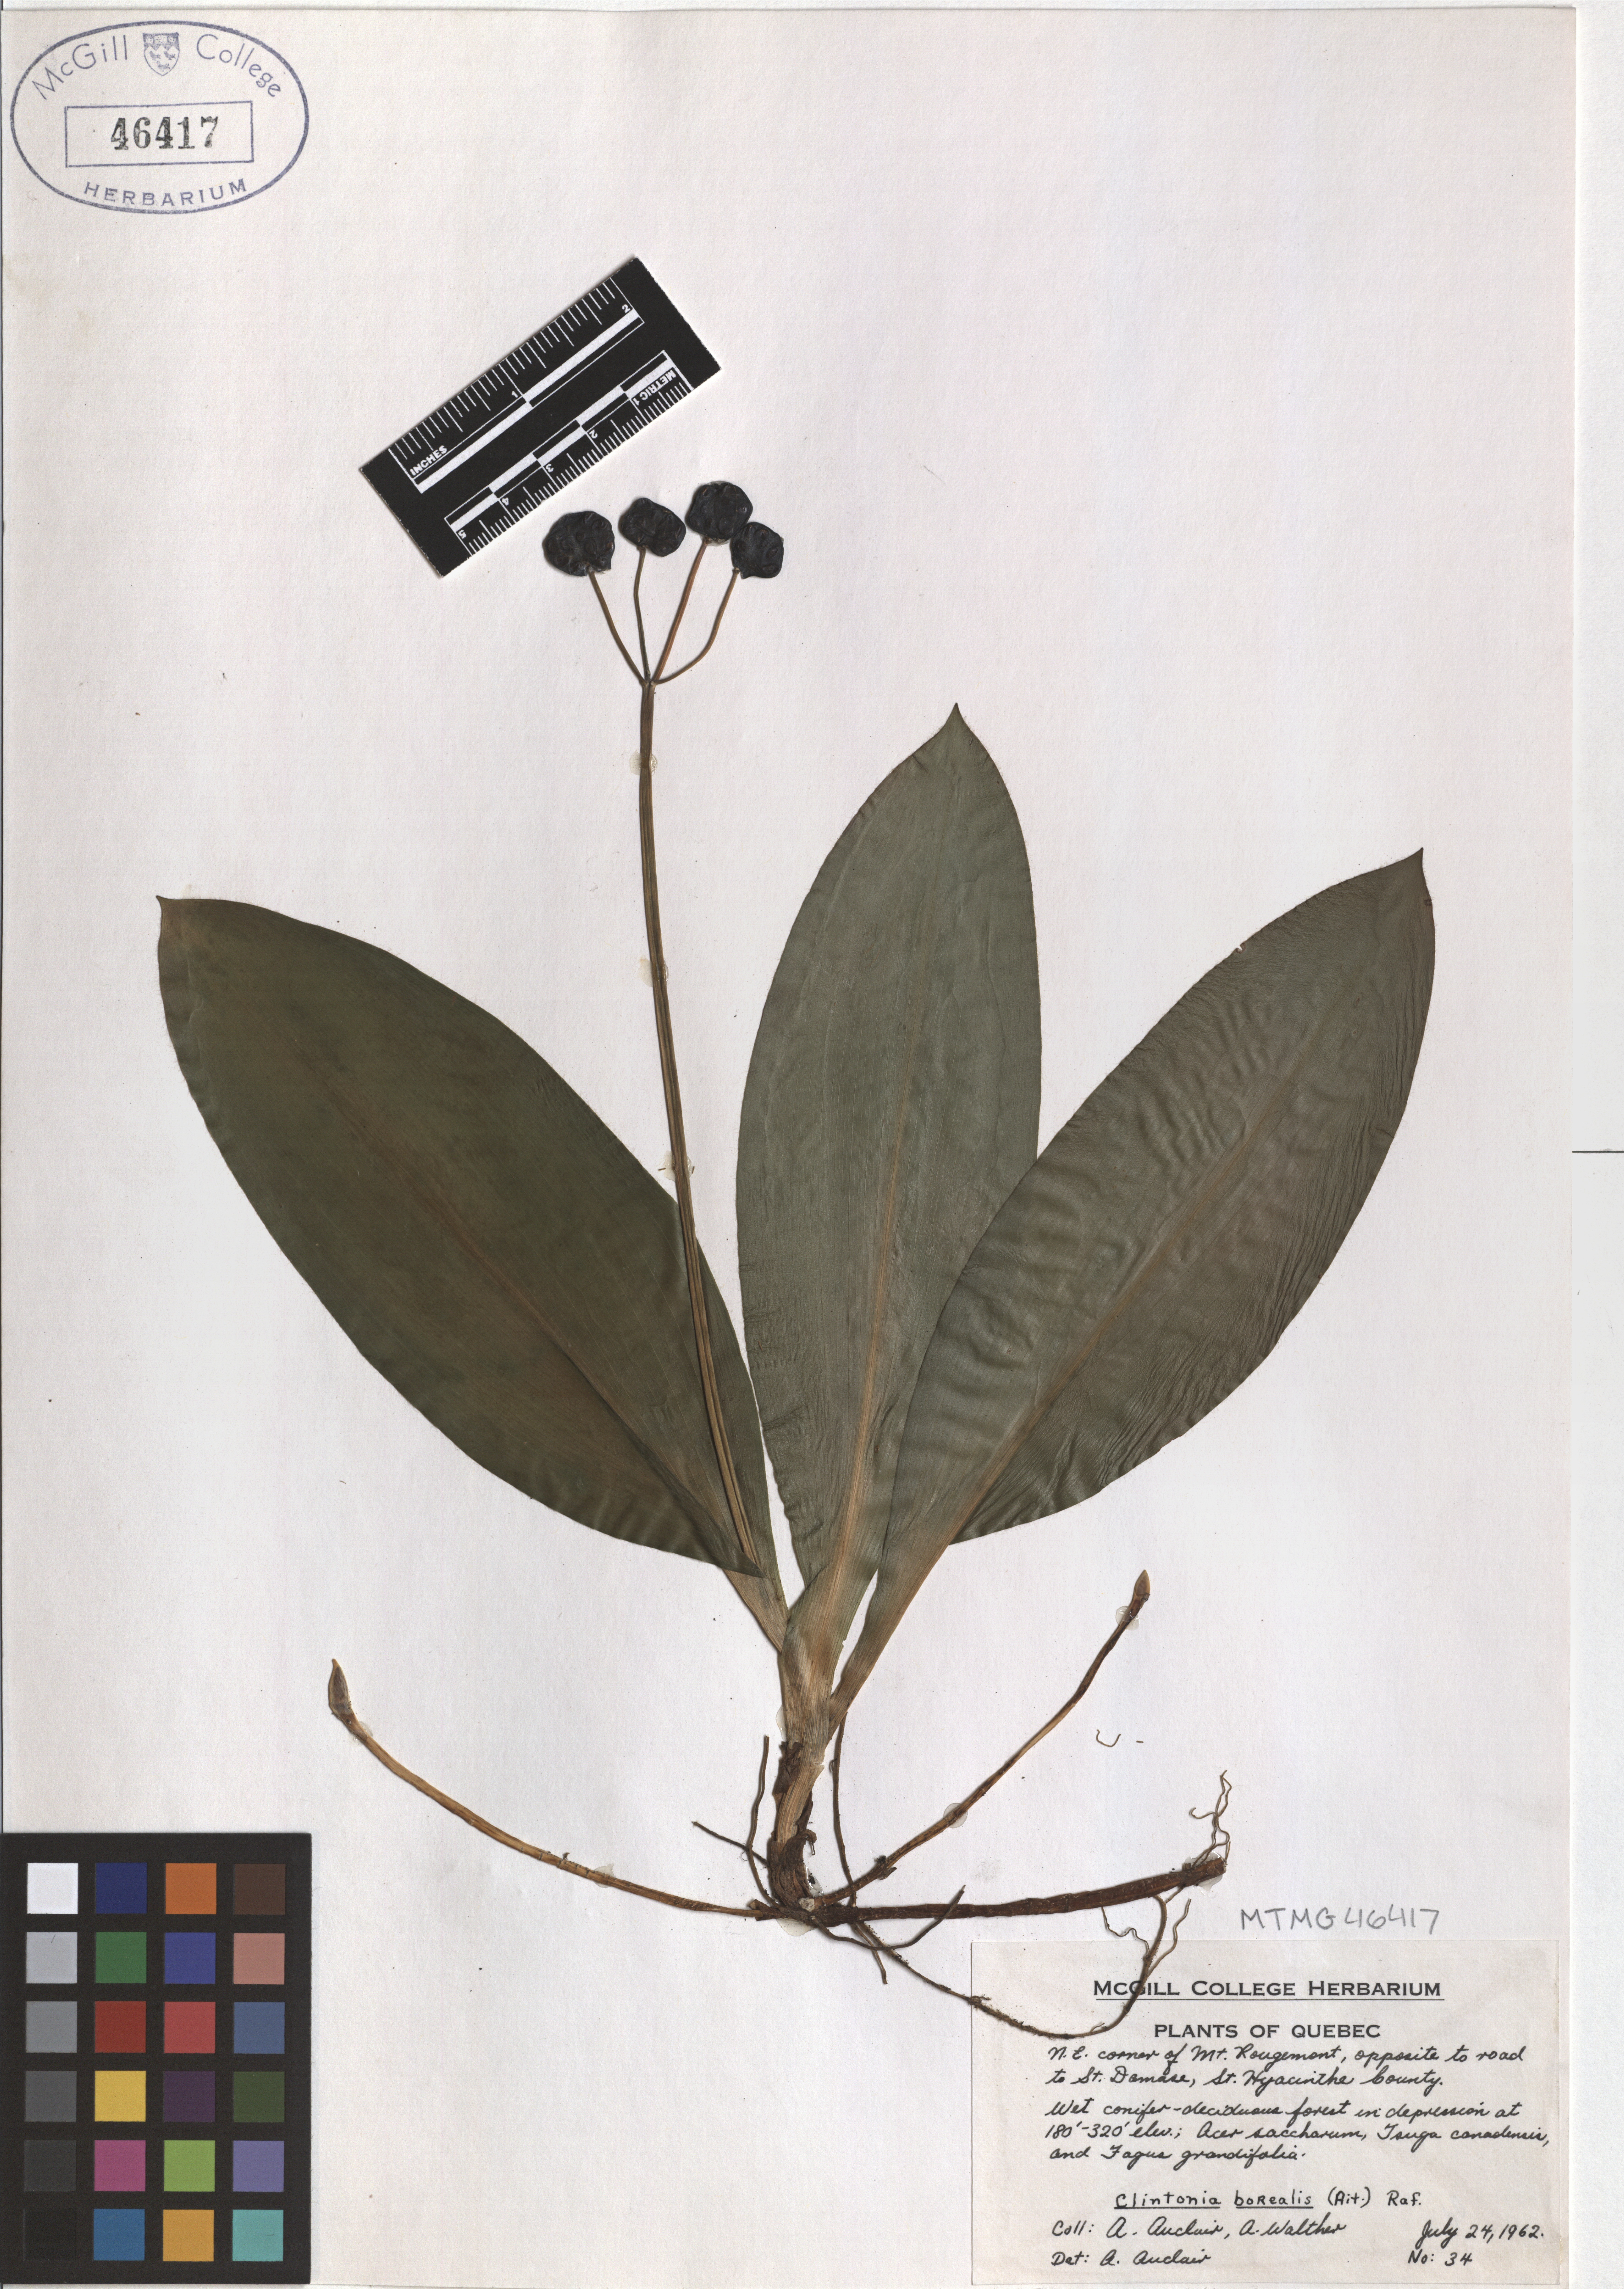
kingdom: Plantae
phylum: Tracheophyta
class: Liliopsida
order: Liliales
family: Liliaceae
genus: Clintonia
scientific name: Clintonia borealis
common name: Yellow clintonia
